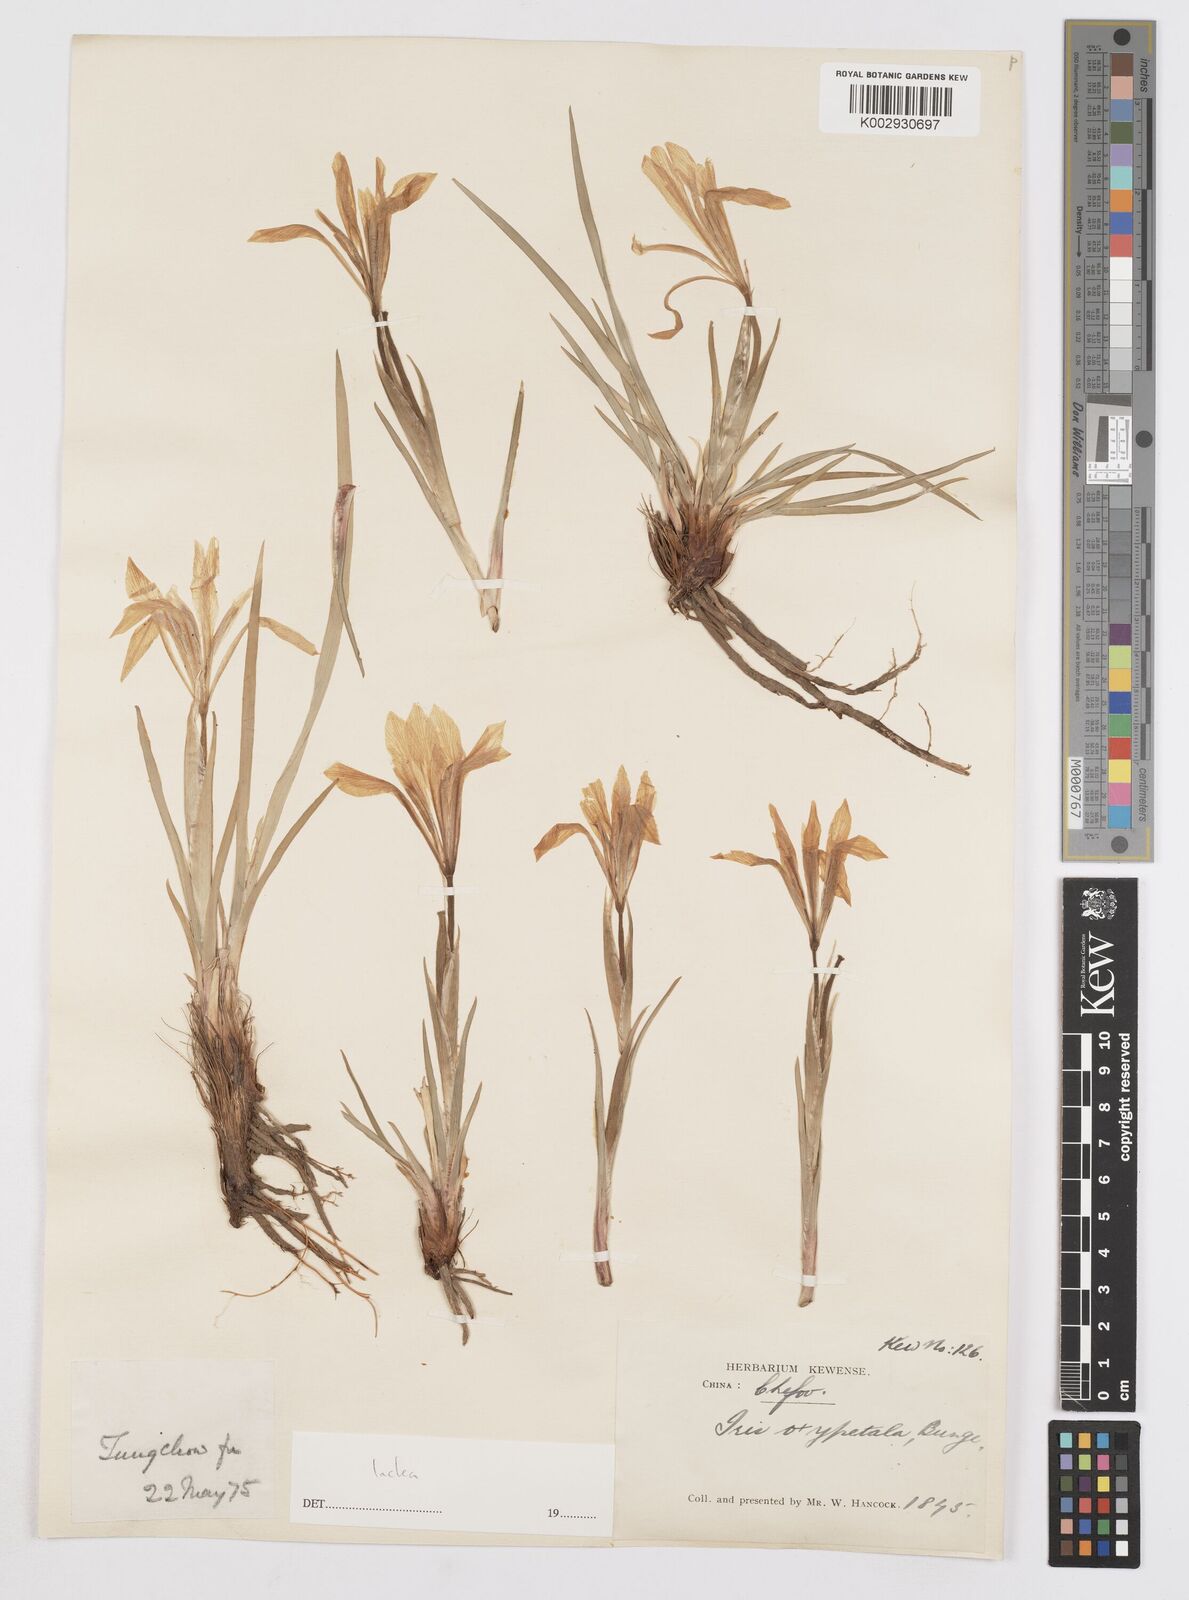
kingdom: Plantae
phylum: Tracheophyta
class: Liliopsida
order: Asparagales
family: Iridaceae
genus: Iris
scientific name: Iris lactea
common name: White-flower chinese iris
